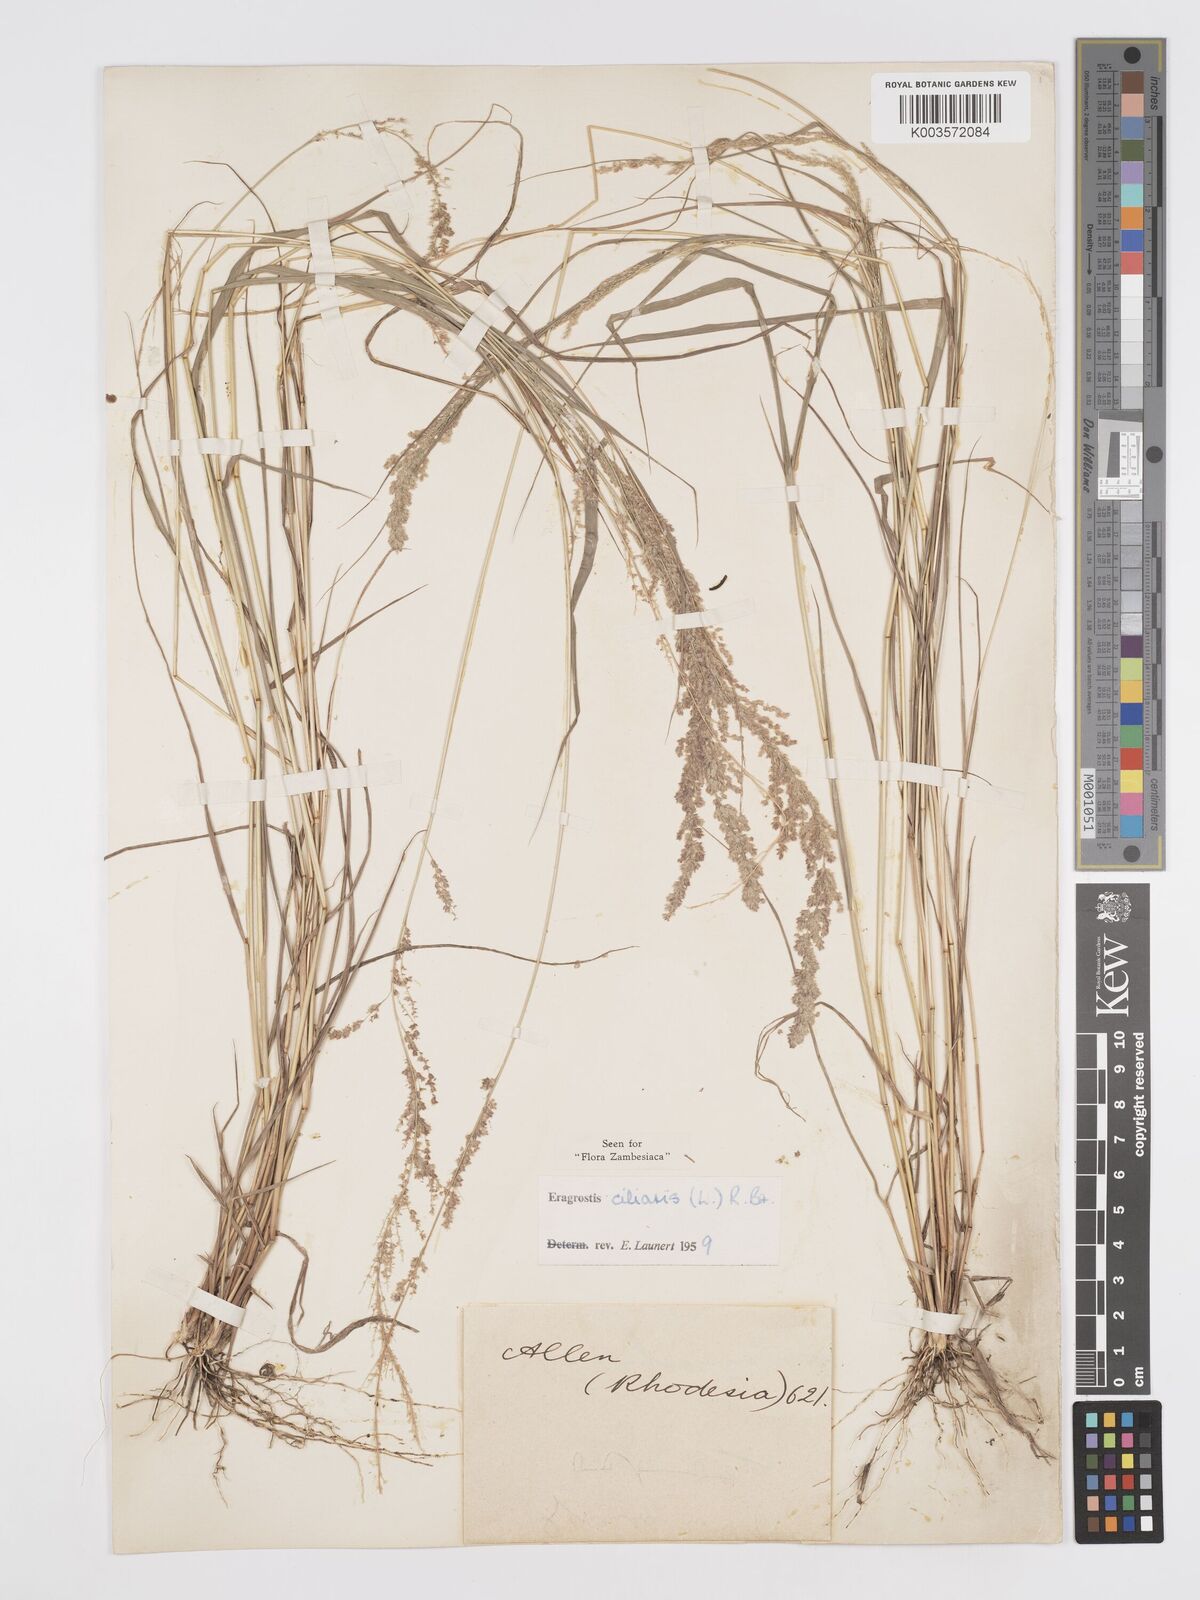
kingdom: Plantae
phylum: Tracheophyta
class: Liliopsida
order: Poales
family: Poaceae
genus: Eragrostis
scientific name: Eragrostis ciliaris
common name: Gophertail lovegrass
